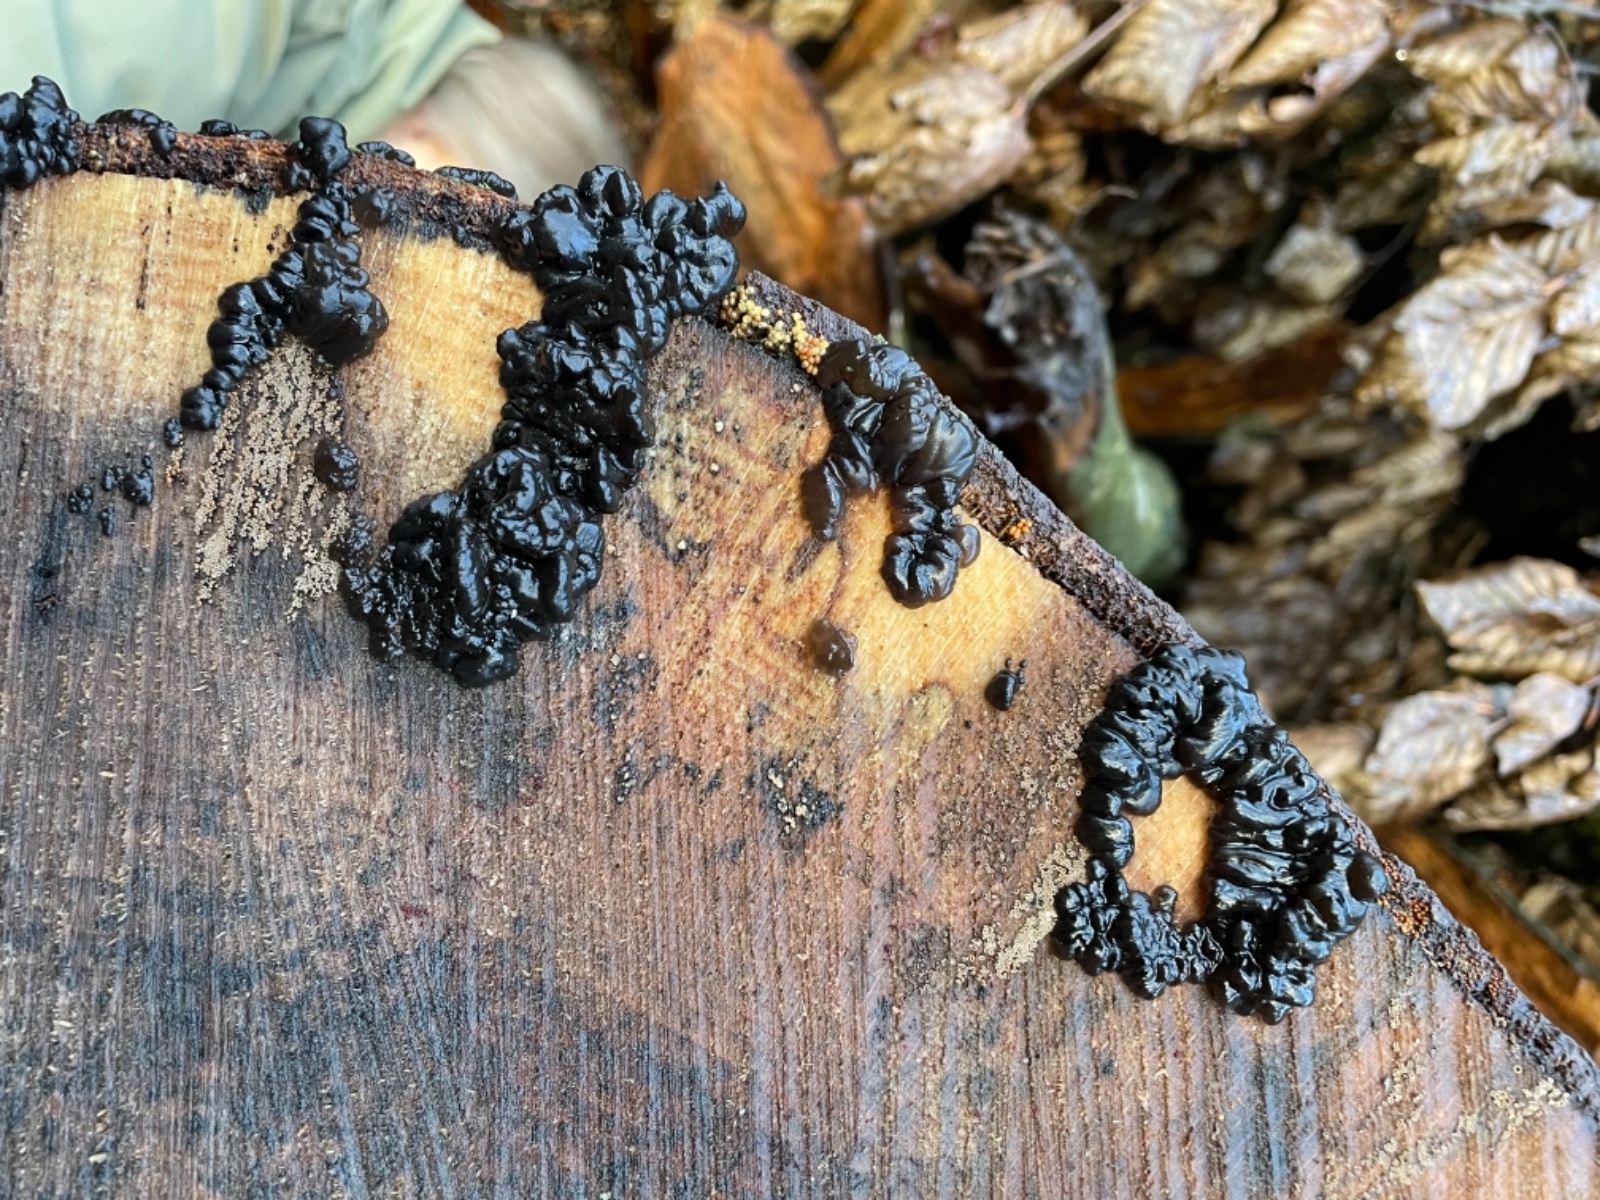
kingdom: Fungi
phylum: Basidiomycota
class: Agaricomycetes
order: Auriculariales
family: Auriculariaceae
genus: Exidia
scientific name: Exidia nigricans
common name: almindelig bævretop
